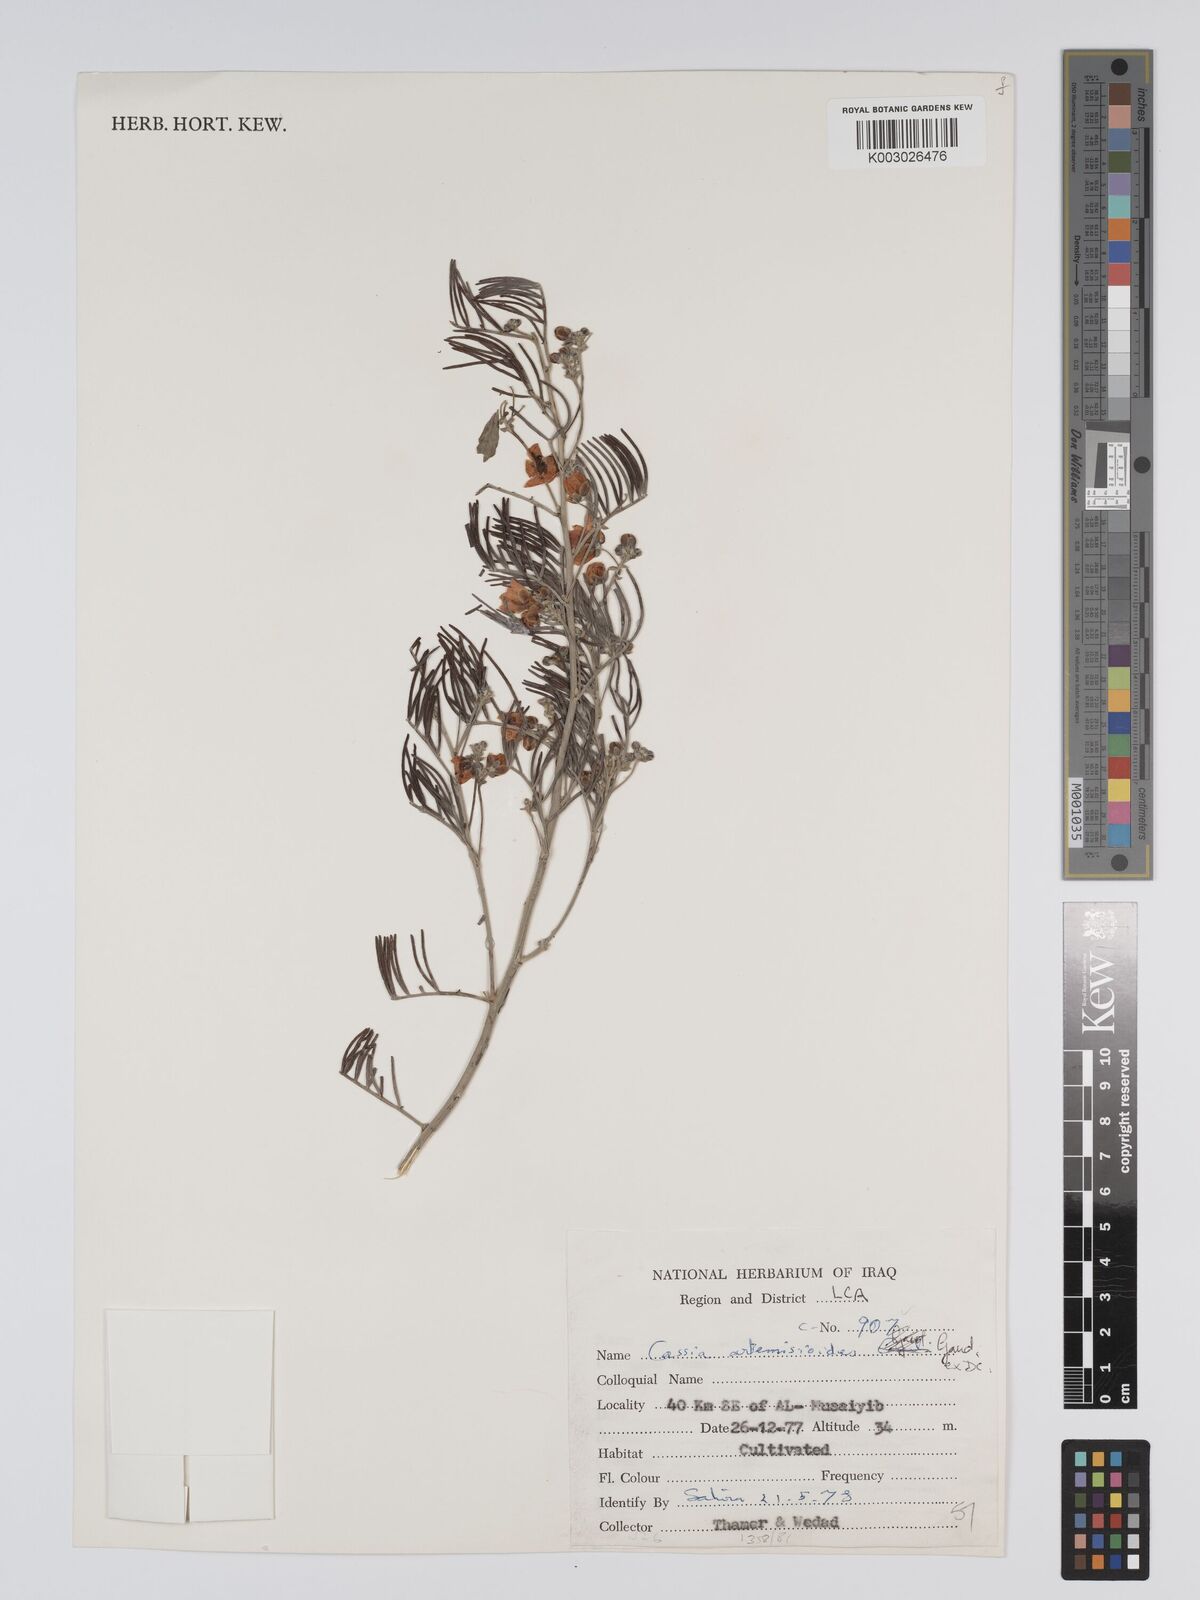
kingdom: Plantae
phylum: Tracheophyta
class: Magnoliopsida
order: Fabales
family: Fabaceae
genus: Senna
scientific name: Senna artemisioides
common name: Burnt-leaved acacia
